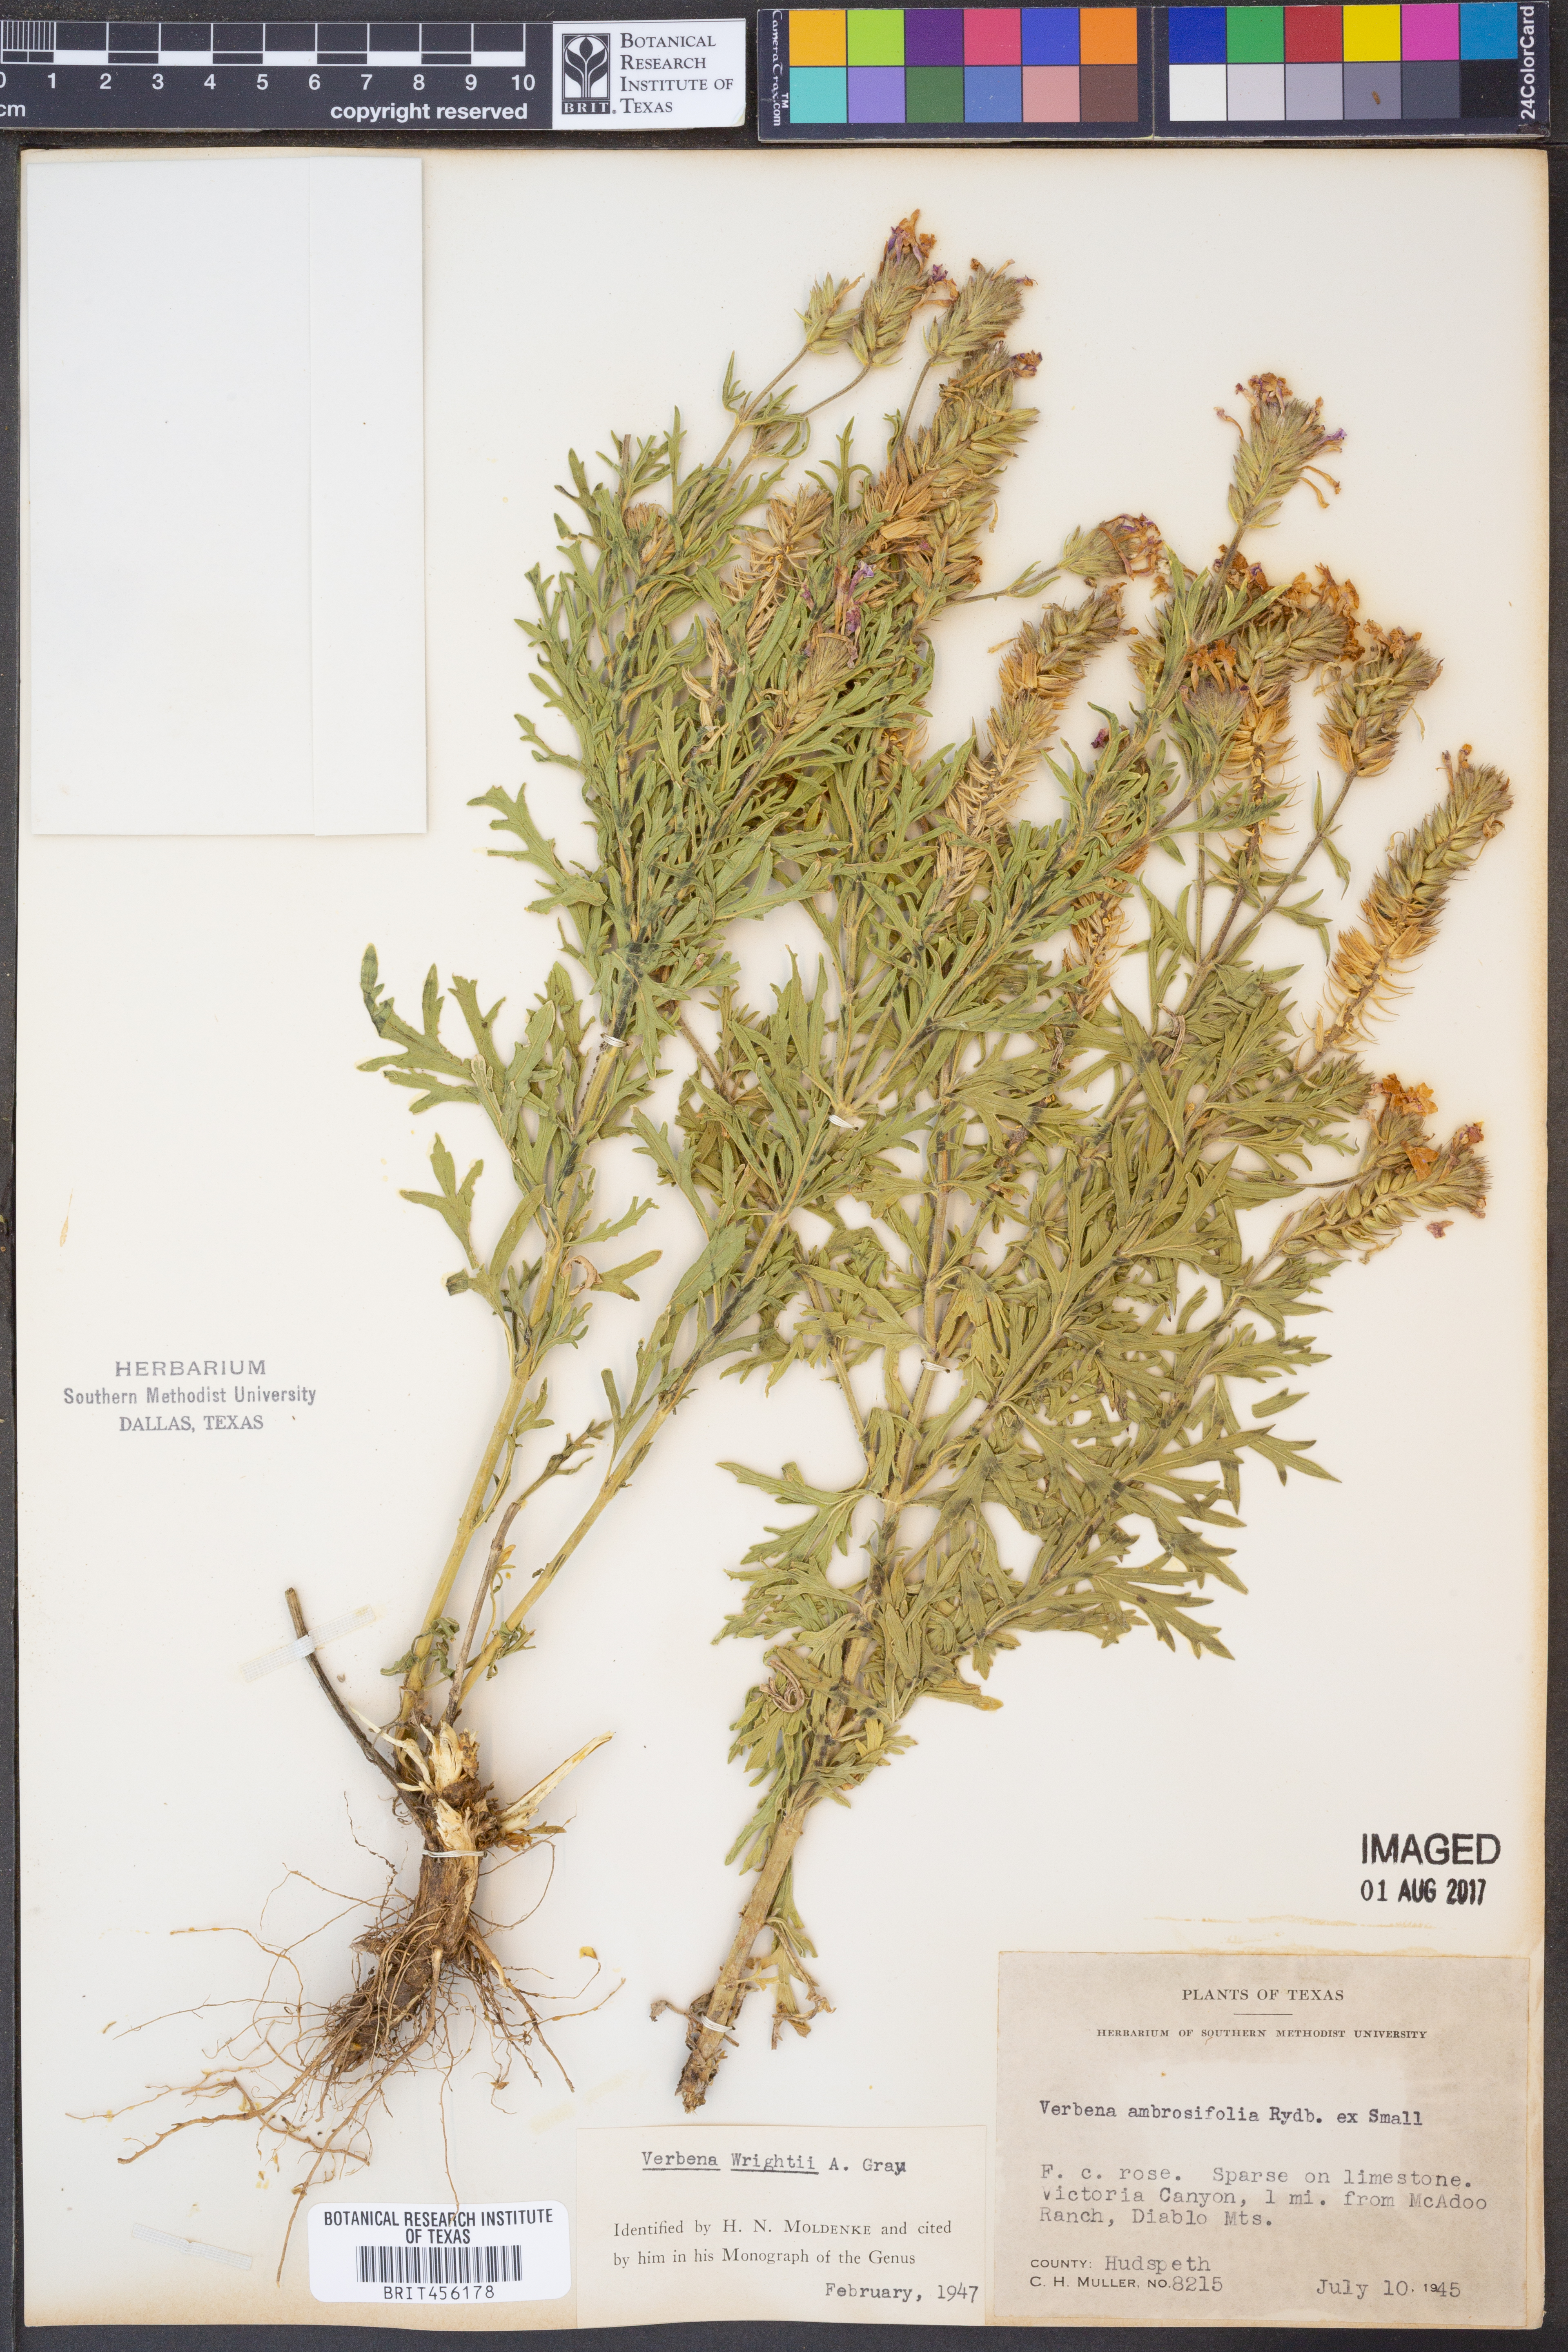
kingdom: Plantae
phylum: Tracheophyta
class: Magnoliopsida
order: Lamiales
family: Verbenaceae
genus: Verbena
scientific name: Verbena bipinnatifida
